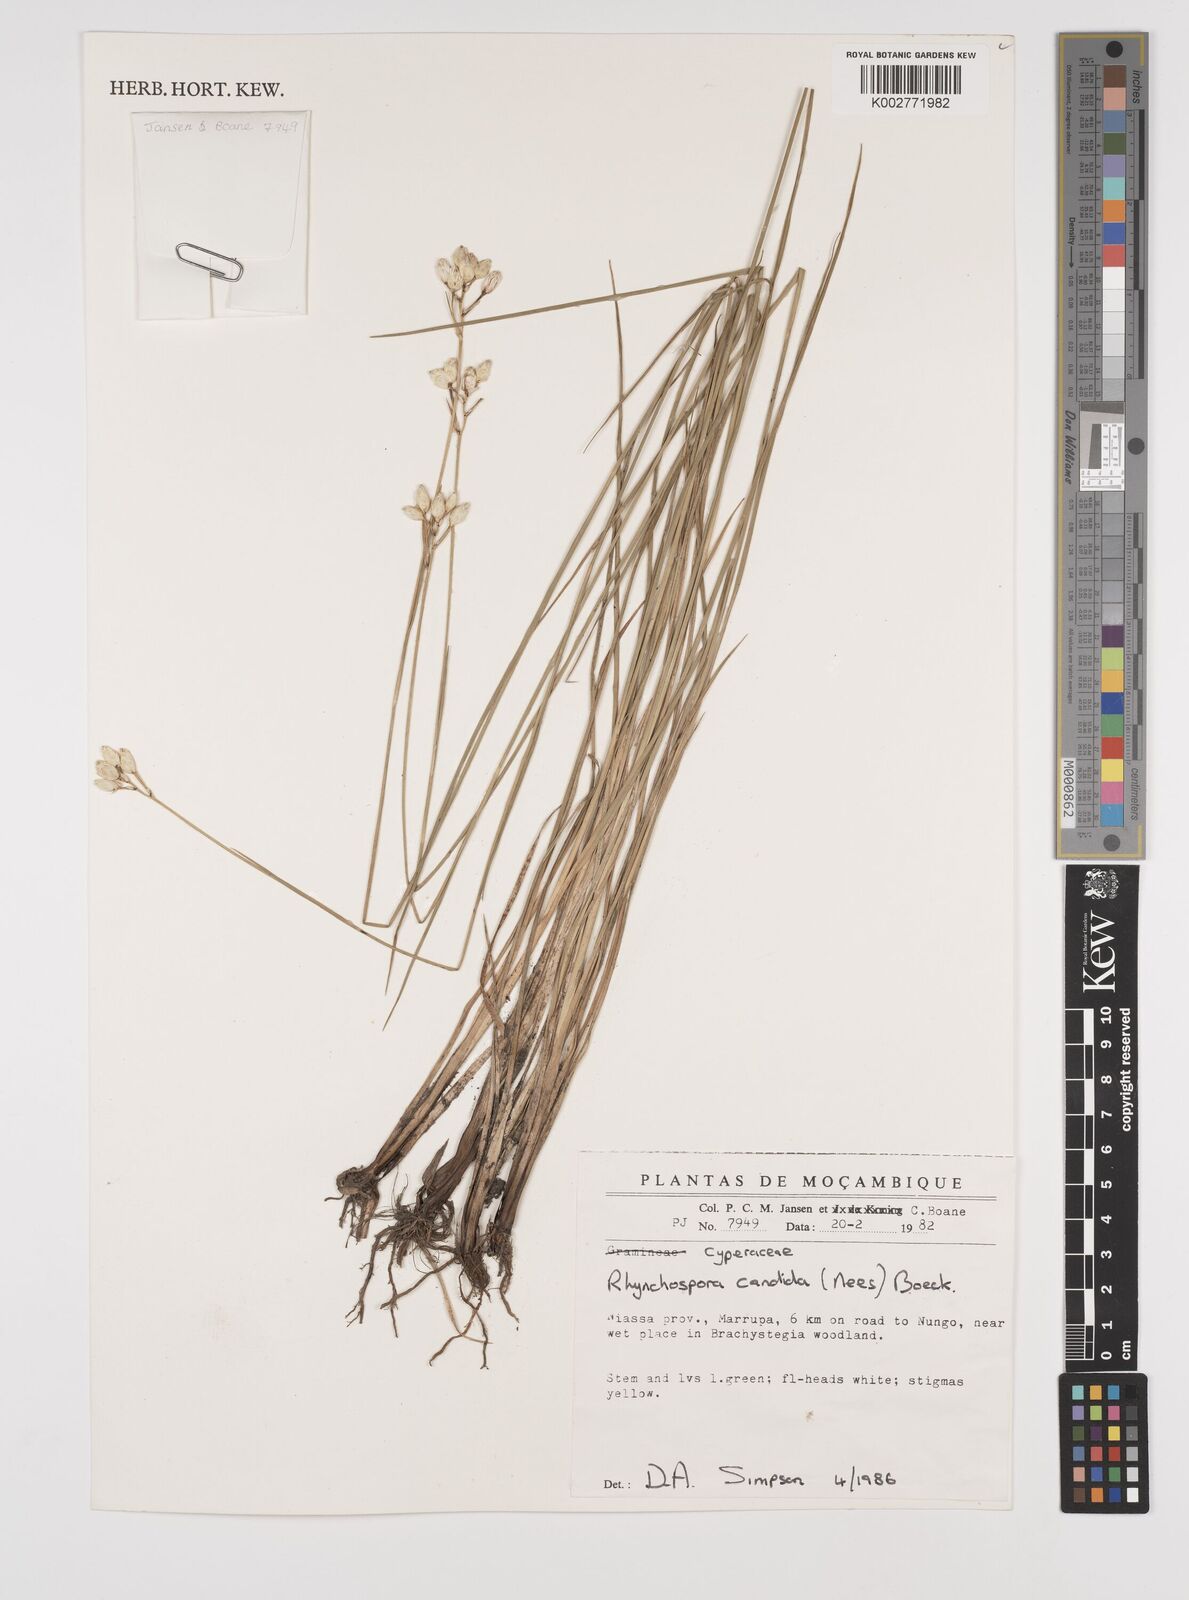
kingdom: Plantae
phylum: Tracheophyta
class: Liliopsida
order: Poales
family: Cyperaceae
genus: Rhynchospora
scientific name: Rhynchospora candida
